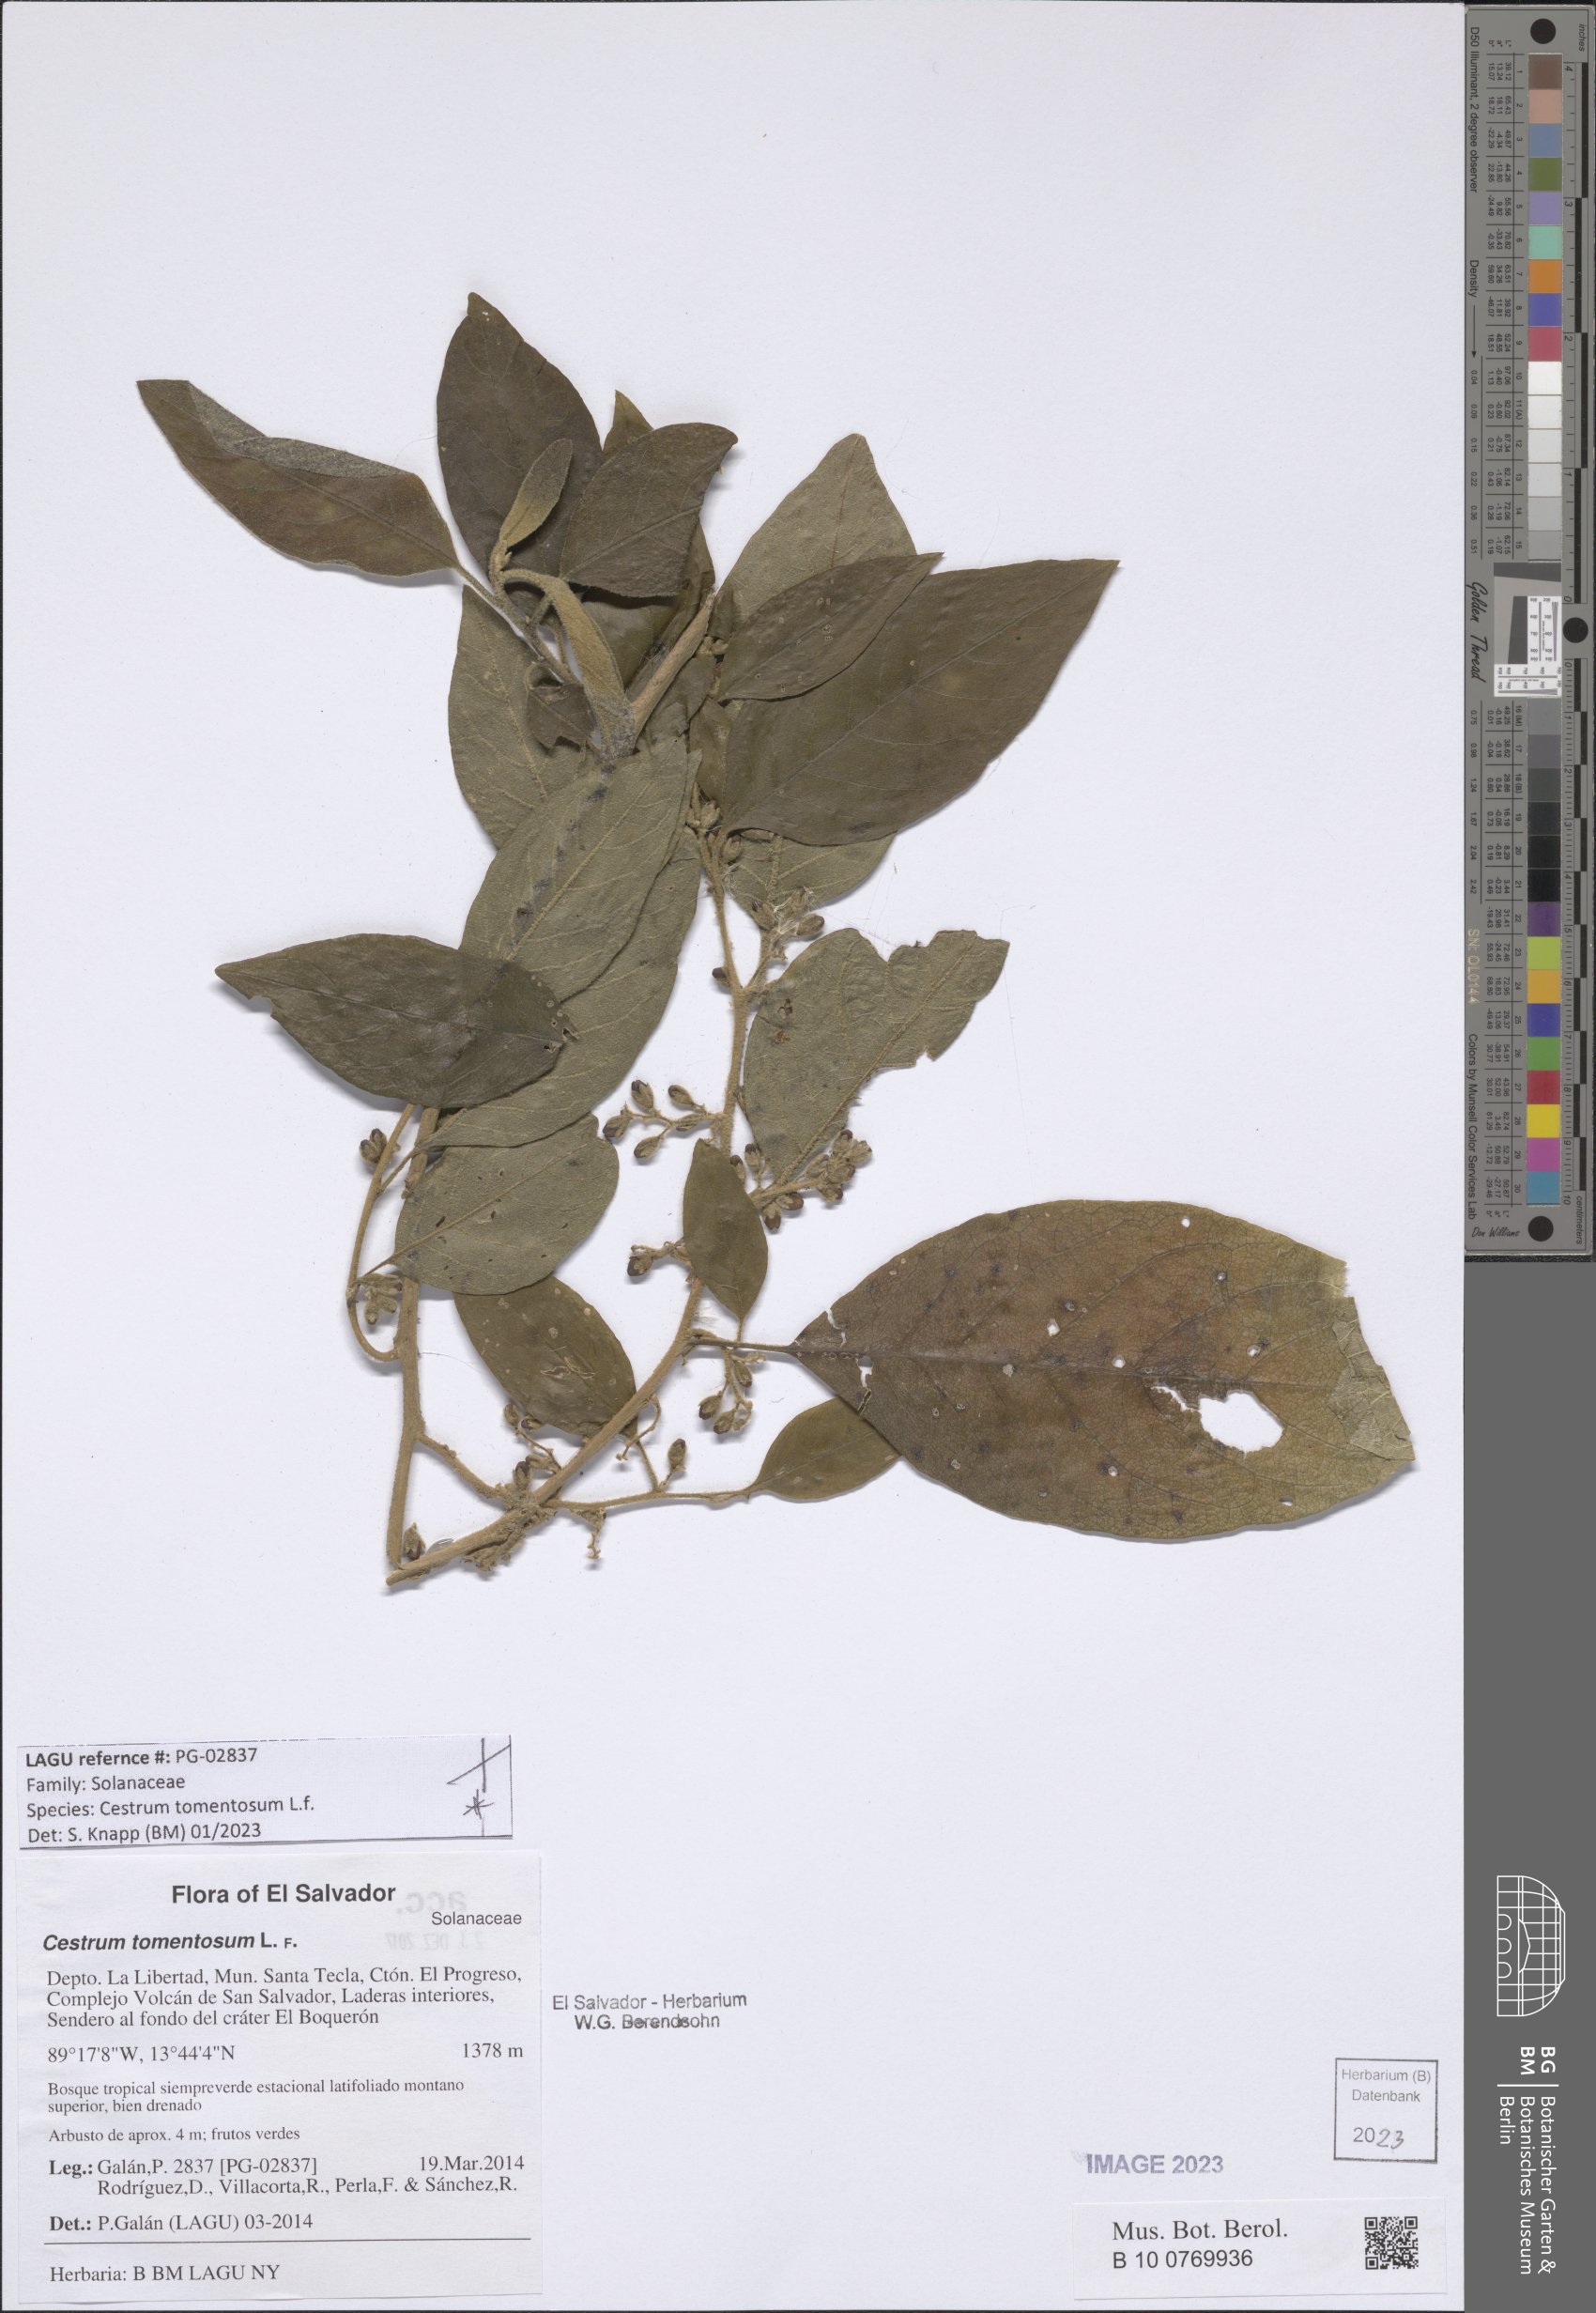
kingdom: Plantae
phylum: Tracheophyta
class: Magnoliopsida
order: Solanales
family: Solanaceae
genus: Cestrum
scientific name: Cestrum tomentosum
